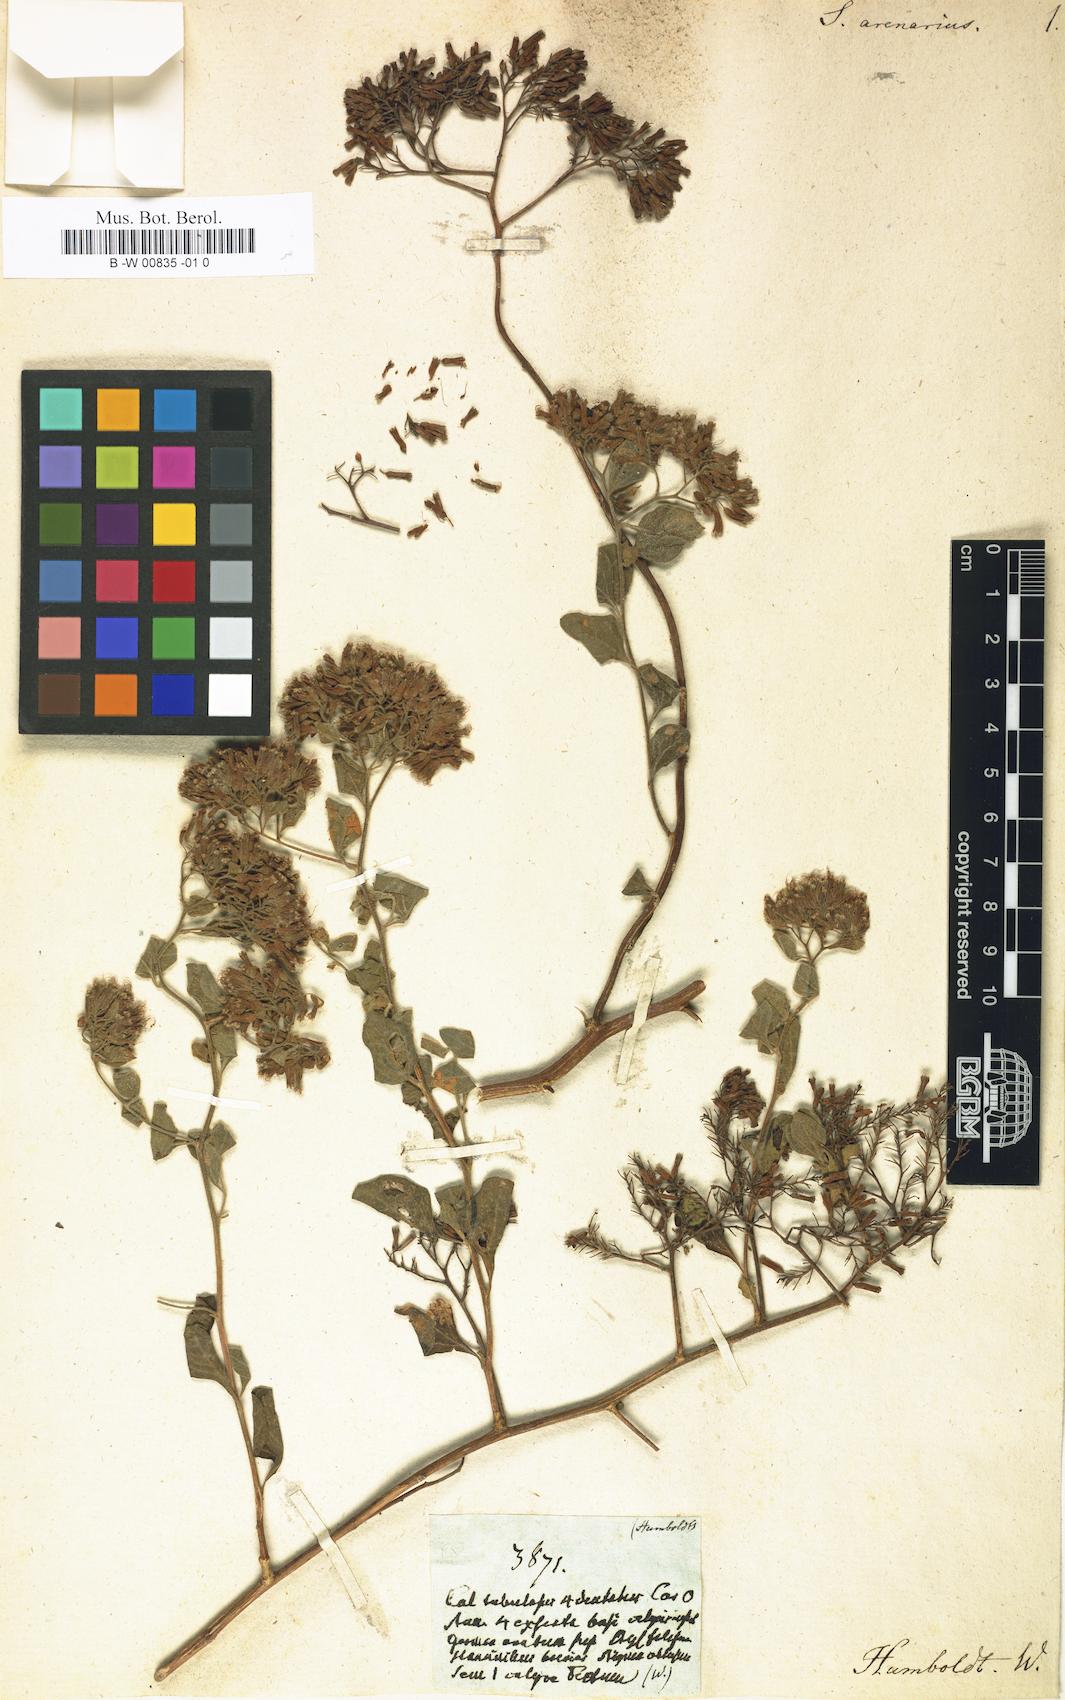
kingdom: Plantae
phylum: Tracheophyta
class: Magnoliopsida
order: Caryophyllales
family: Nyctaginaceae
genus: Salpianthus
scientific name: Salpianthus arenarius
